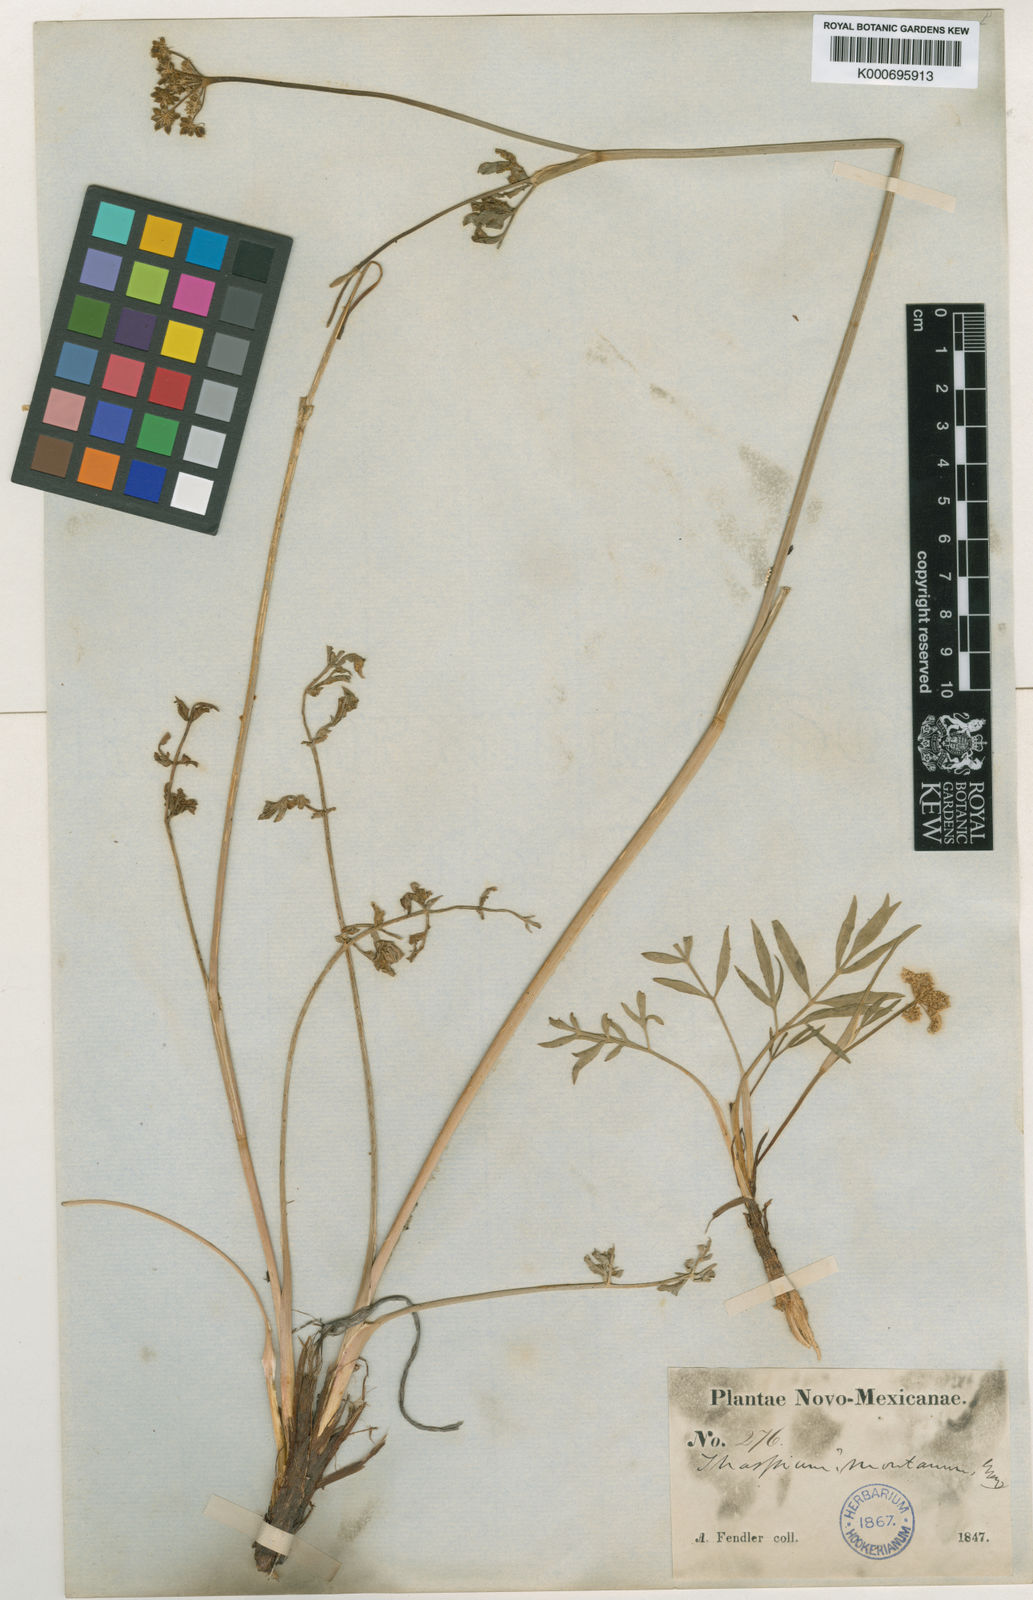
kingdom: Plantae
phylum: Tracheophyta
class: Magnoliopsida
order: Apiales
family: Apiaceae
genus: Cymopterus
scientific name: Cymopterus lemmonii
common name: Lemmon's spring-parsley
